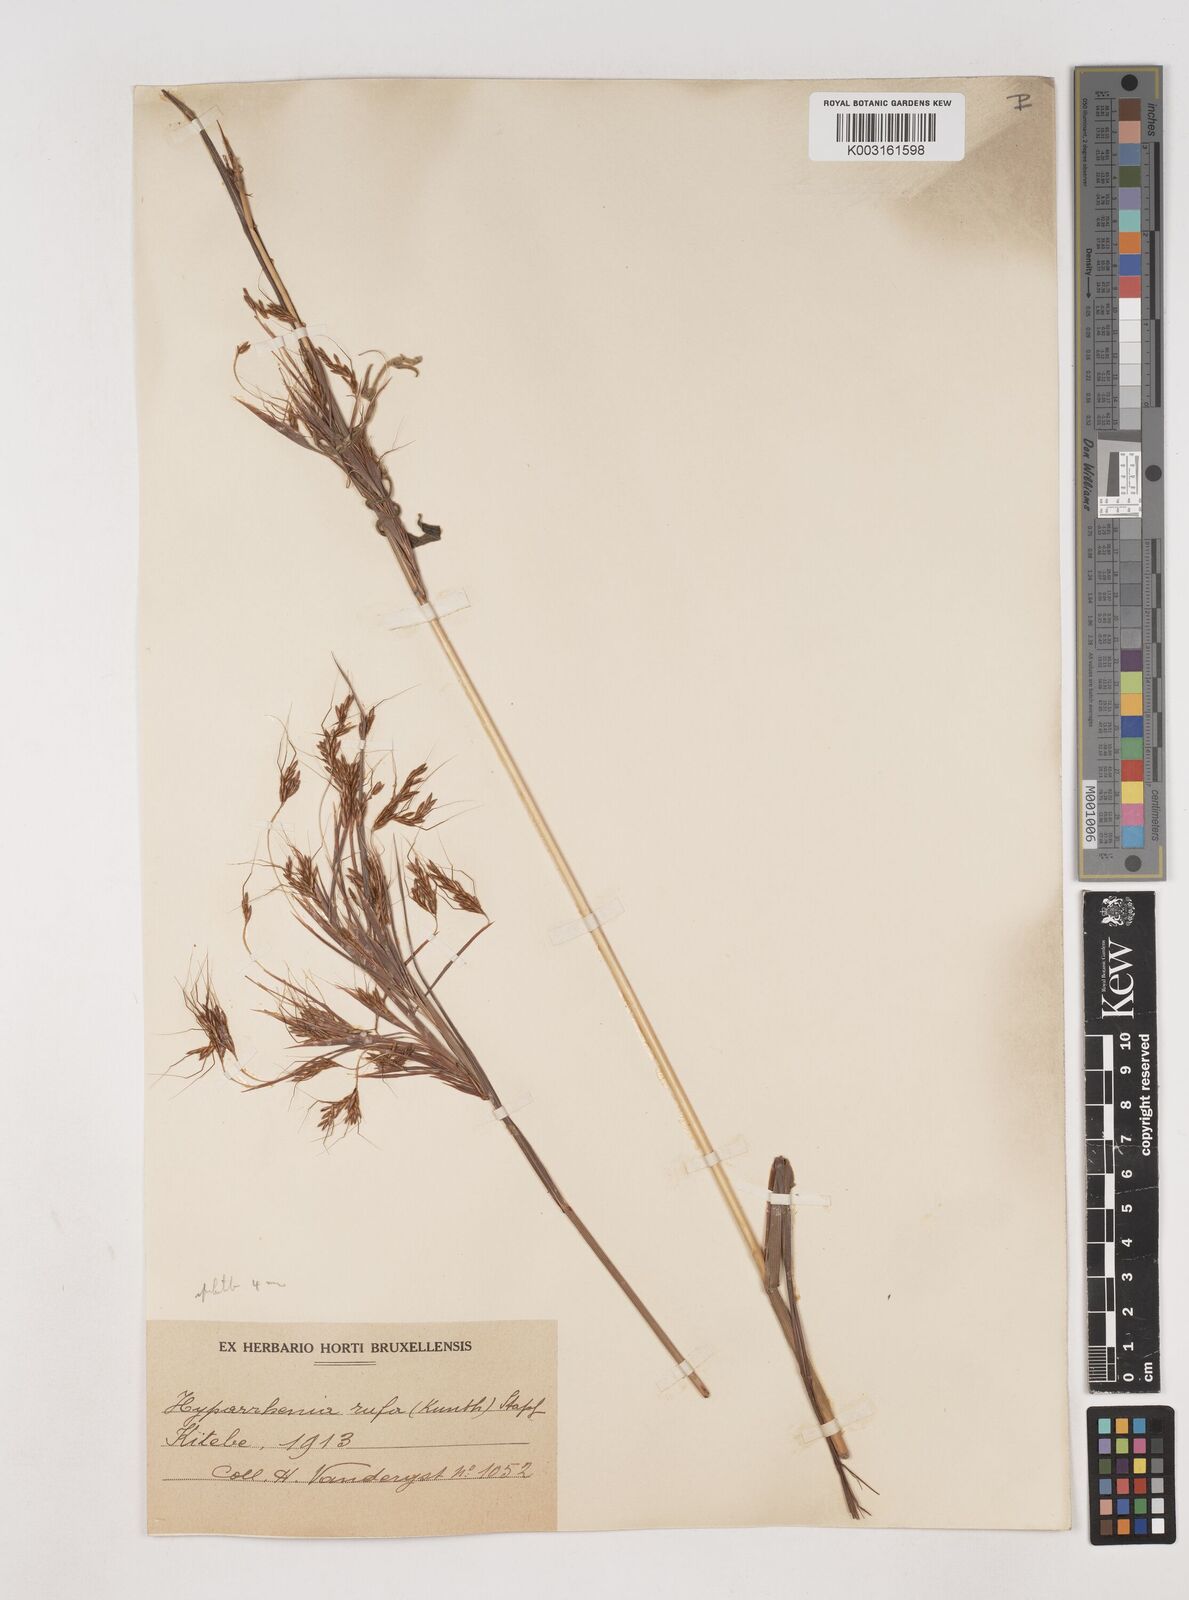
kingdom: Plantae
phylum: Tracheophyta
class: Liliopsida
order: Poales
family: Poaceae
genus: Hyparrhenia
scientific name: Hyparrhenia rufa
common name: Jaraguagrass
